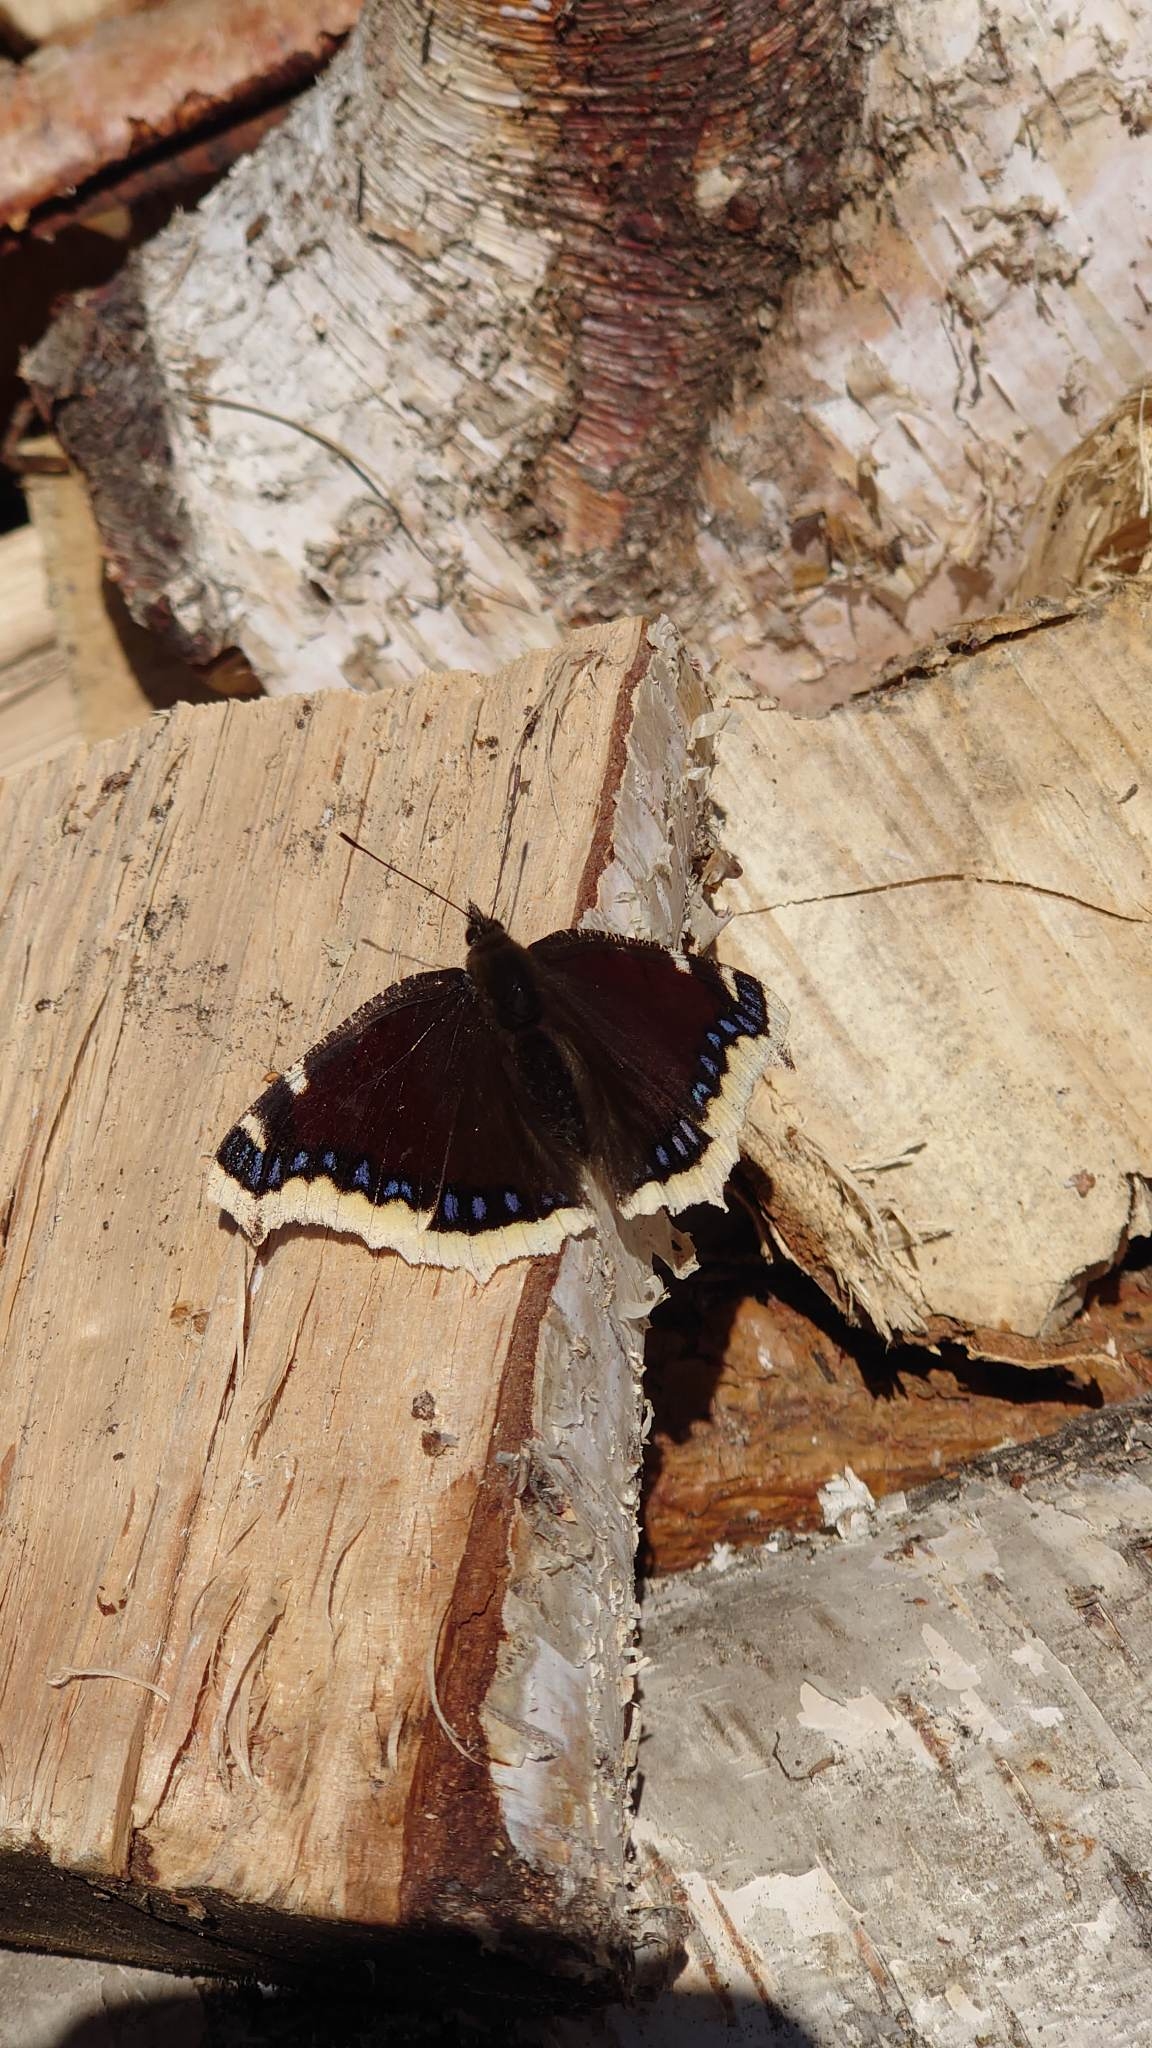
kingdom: Animalia
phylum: Arthropoda
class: Insecta
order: Lepidoptera
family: Nymphalidae
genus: Nymphalis
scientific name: Nymphalis antiopa
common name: Sørgekåbe
